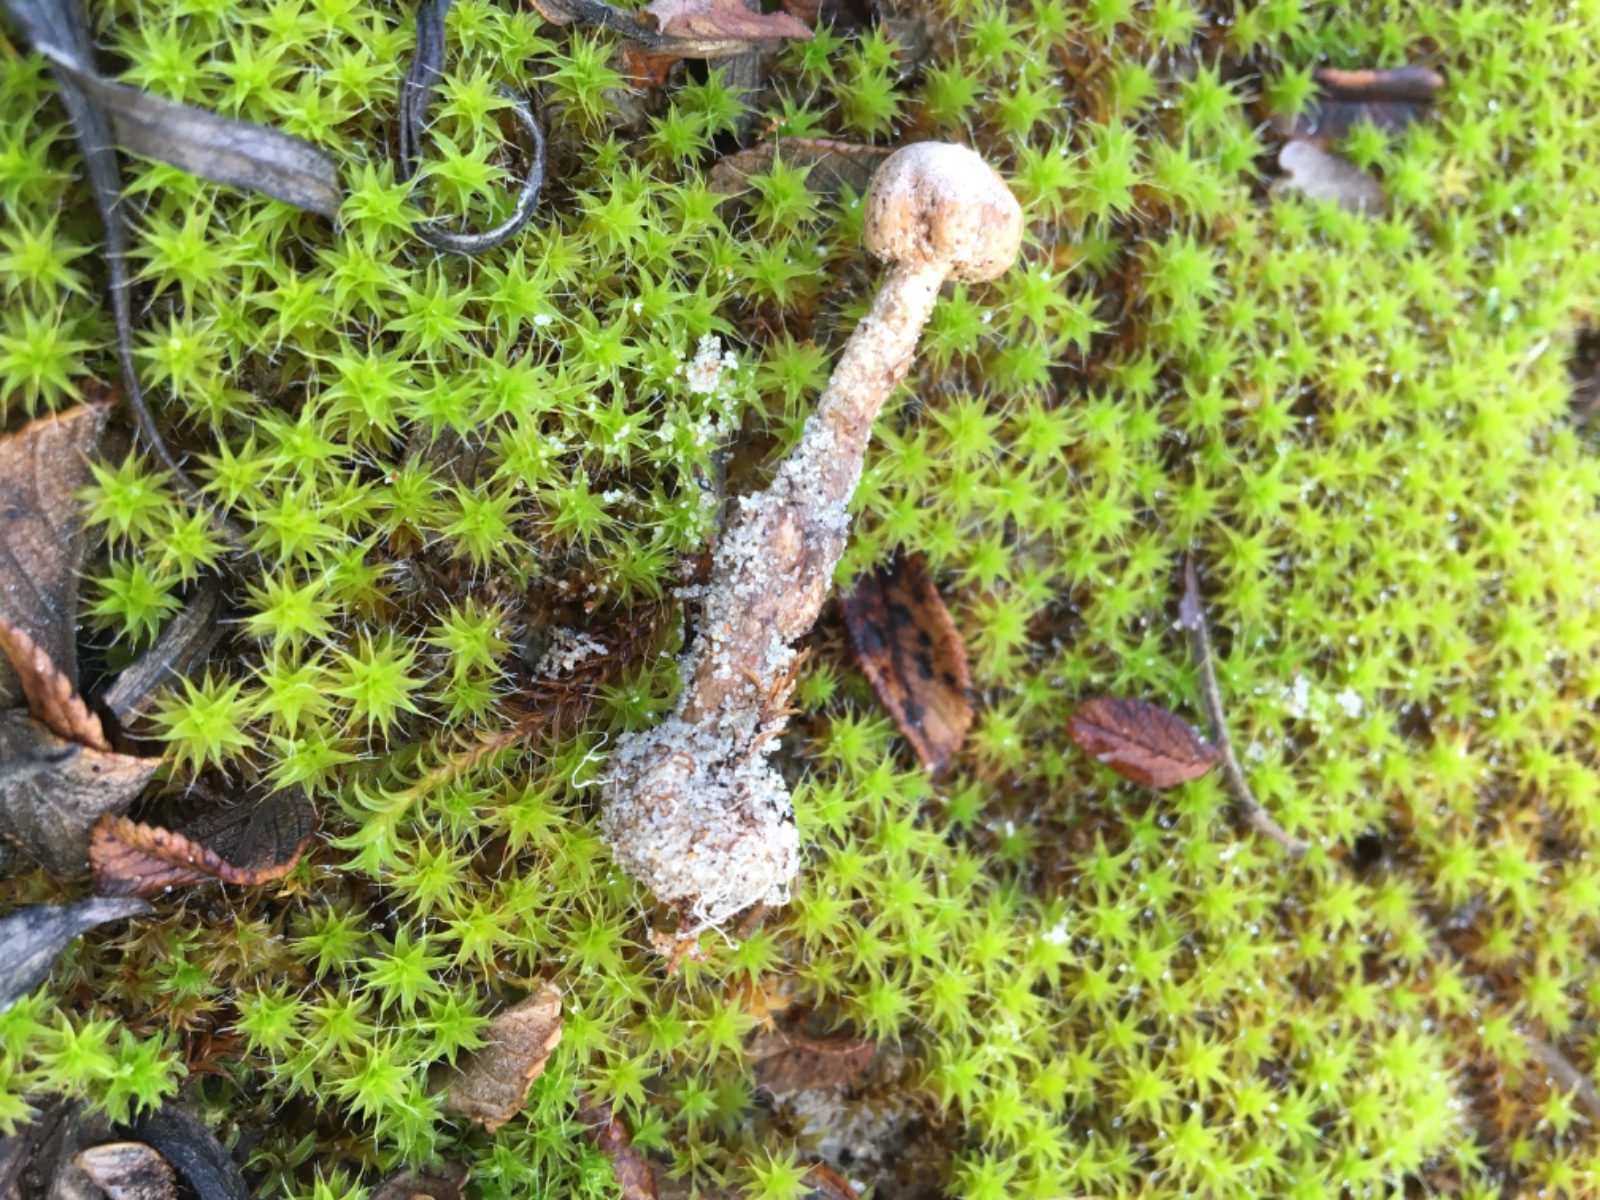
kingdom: Fungi
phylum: Basidiomycota
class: Agaricomycetes
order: Agaricales
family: Agaricaceae
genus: Tulostoma
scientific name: Tulostoma brumale
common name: vinter-stilkbovist
